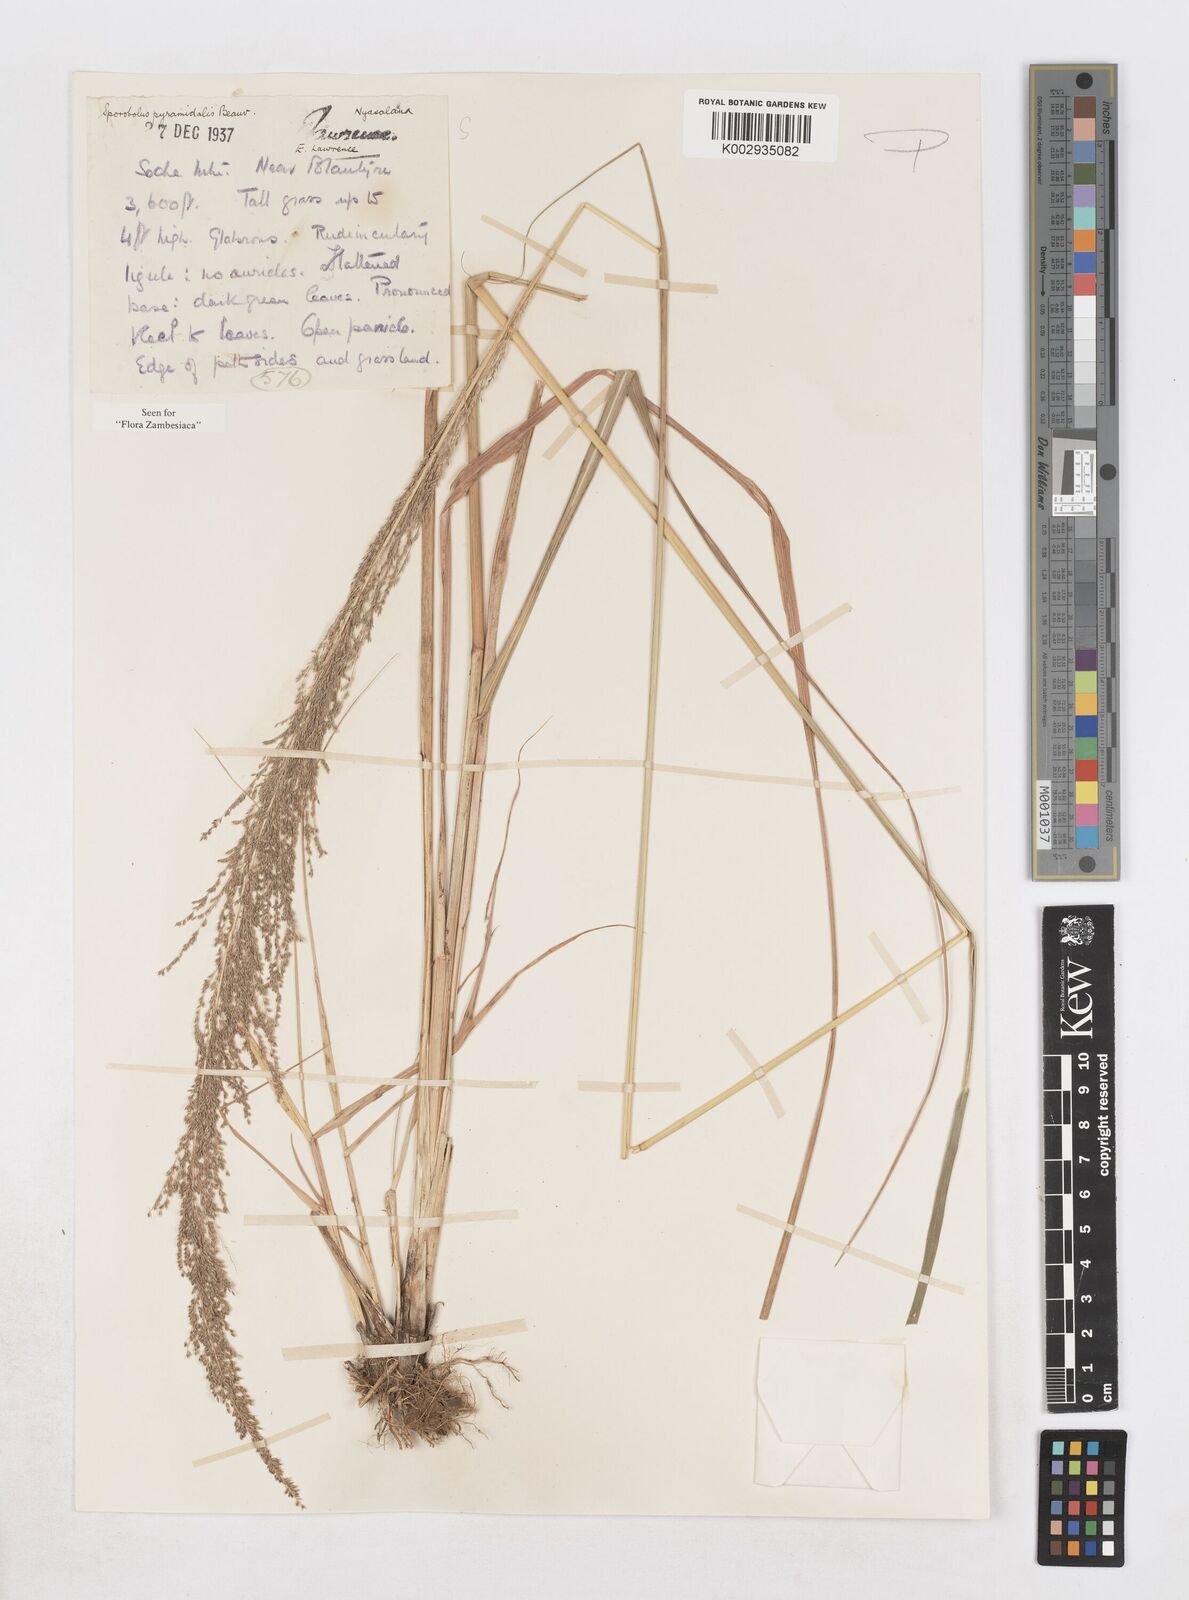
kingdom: Plantae
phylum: Tracheophyta
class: Liliopsida
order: Poales
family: Poaceae
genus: Sporobolus
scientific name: Sporobolus pyramidalis
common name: West indian dropseed
